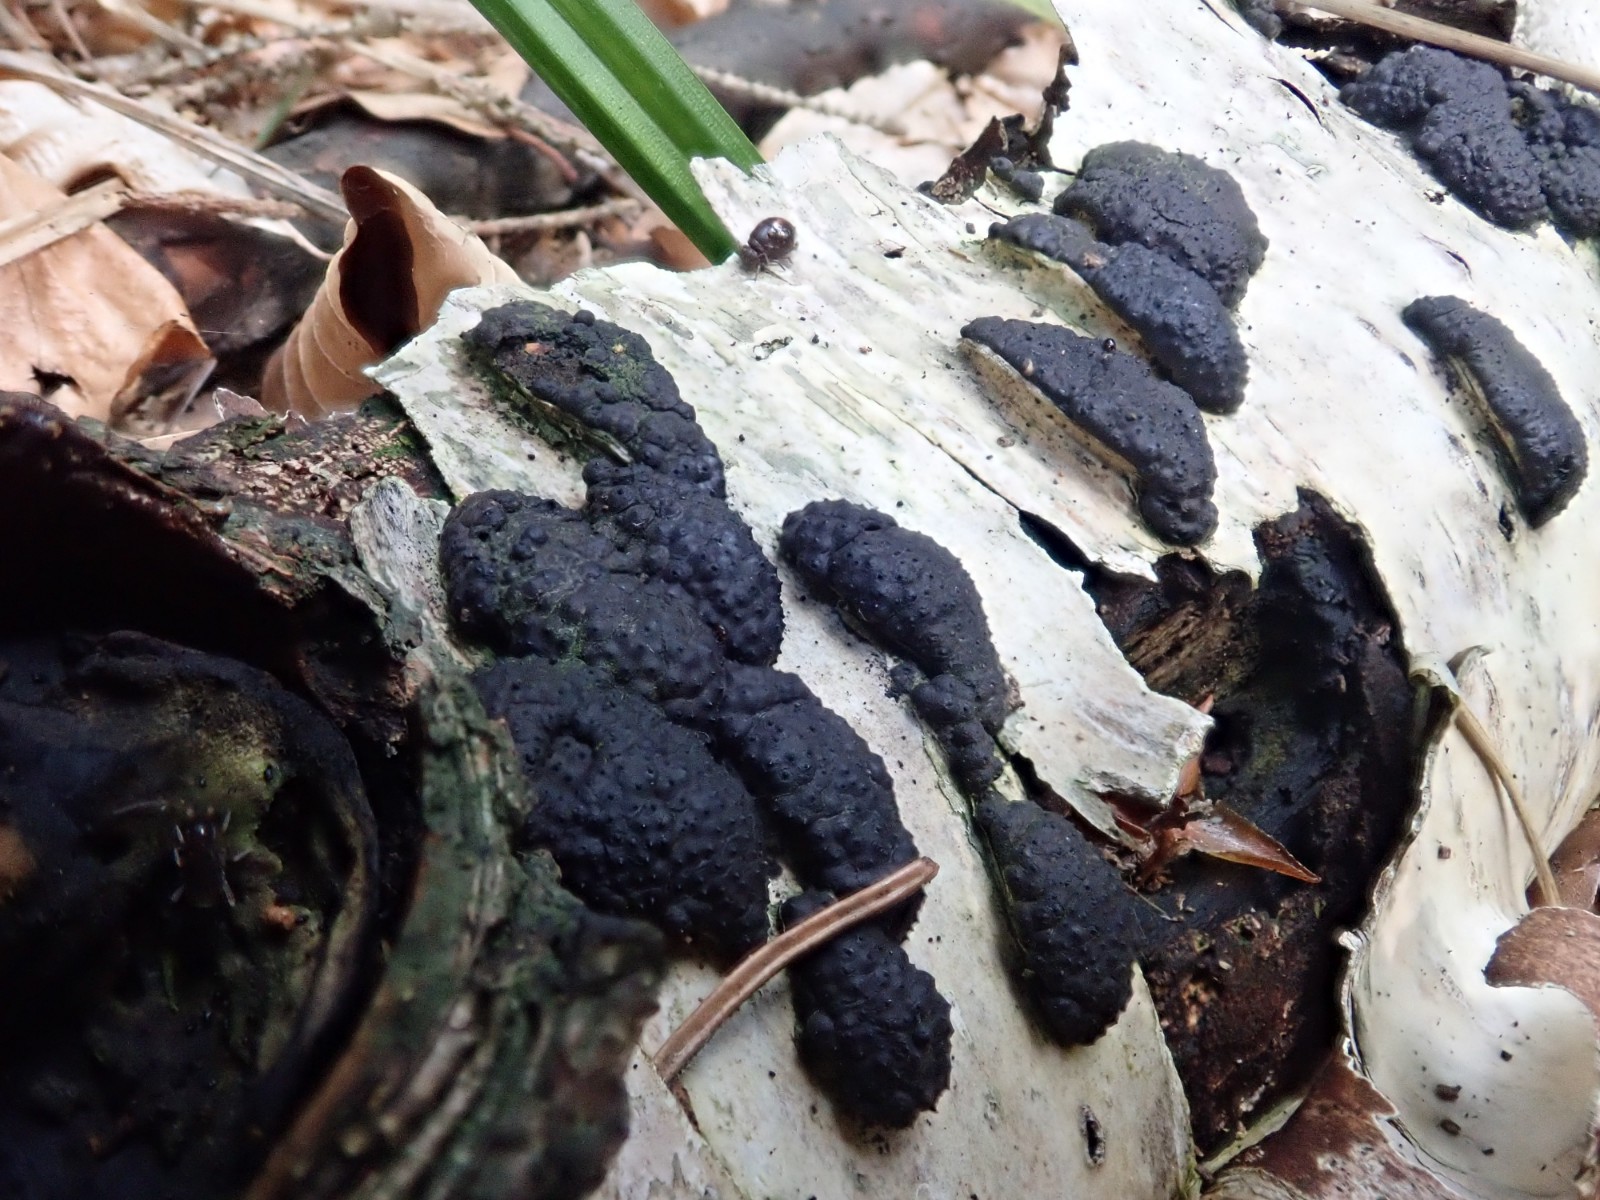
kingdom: Fungi
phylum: Ascomycota
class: Sordariomycetes
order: Xylariales
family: Hypoxylaceae
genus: Jackrogersella
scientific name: Jackrogersella multiformis
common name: foranderlig kulbær
